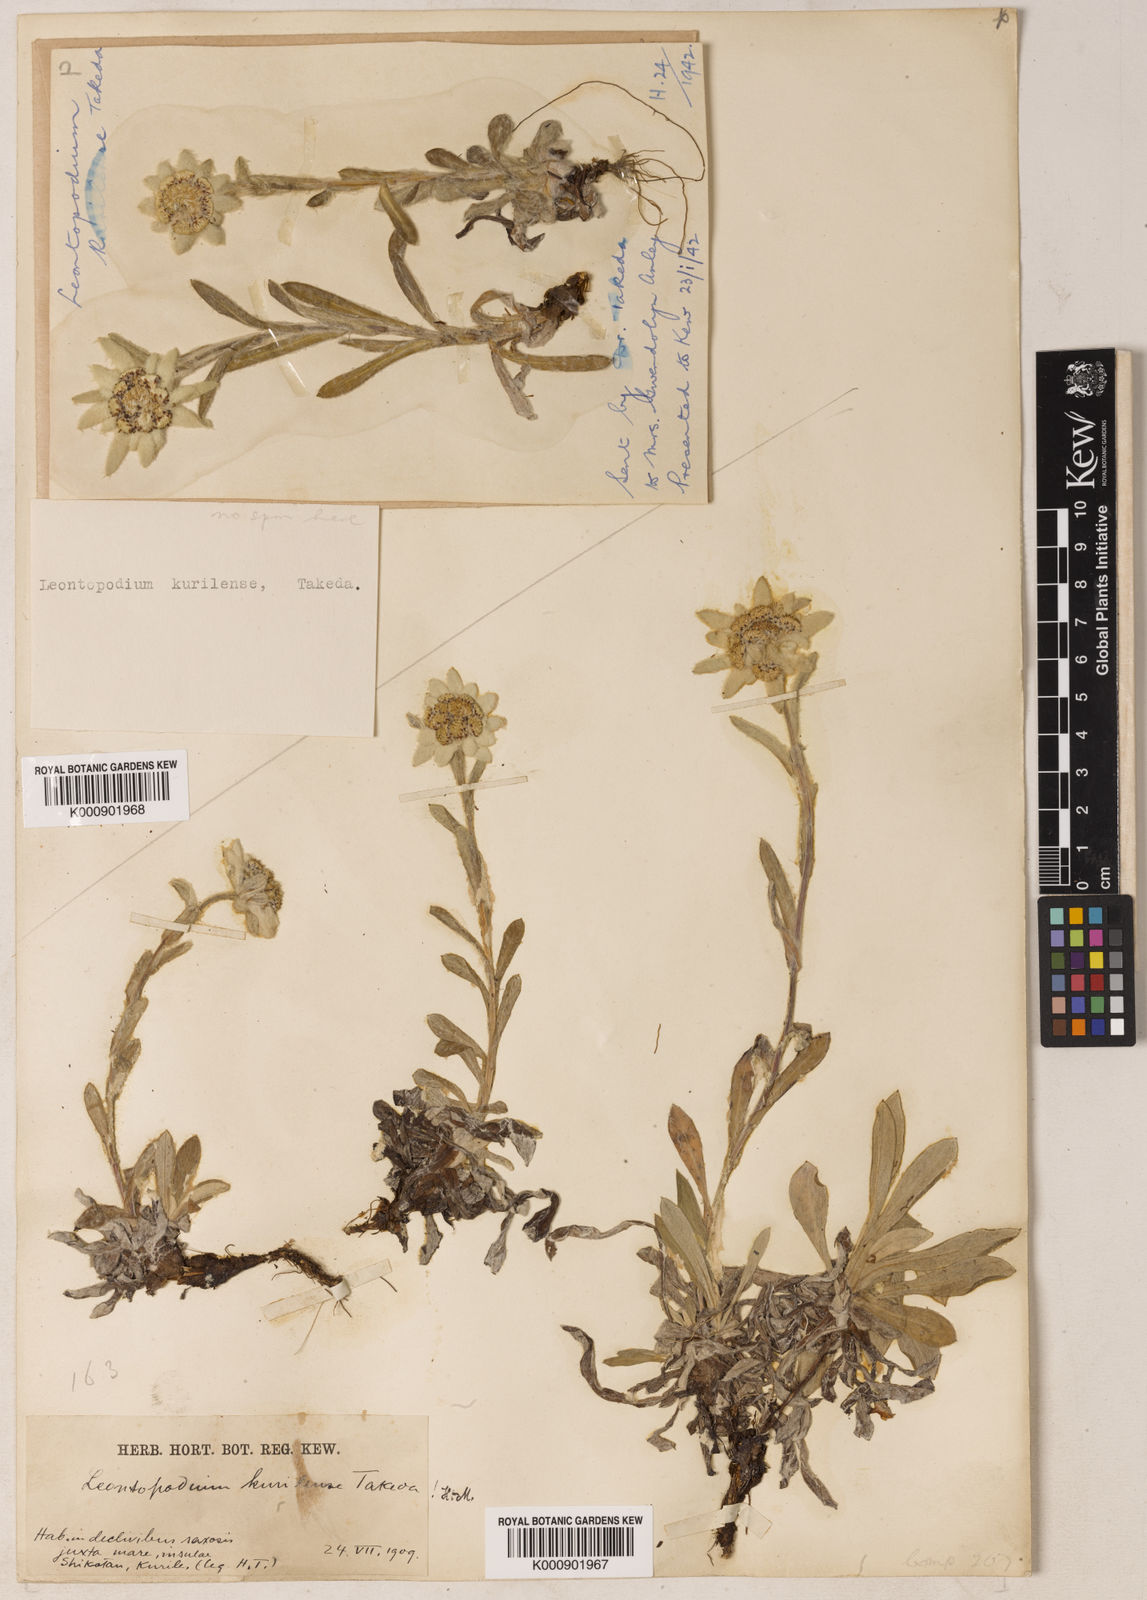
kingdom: Plantae
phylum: Tracheophyta
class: Magnoliopsida
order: Asterales
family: Asteraceae
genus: Leontopodium
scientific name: Leontopodium kurilense
